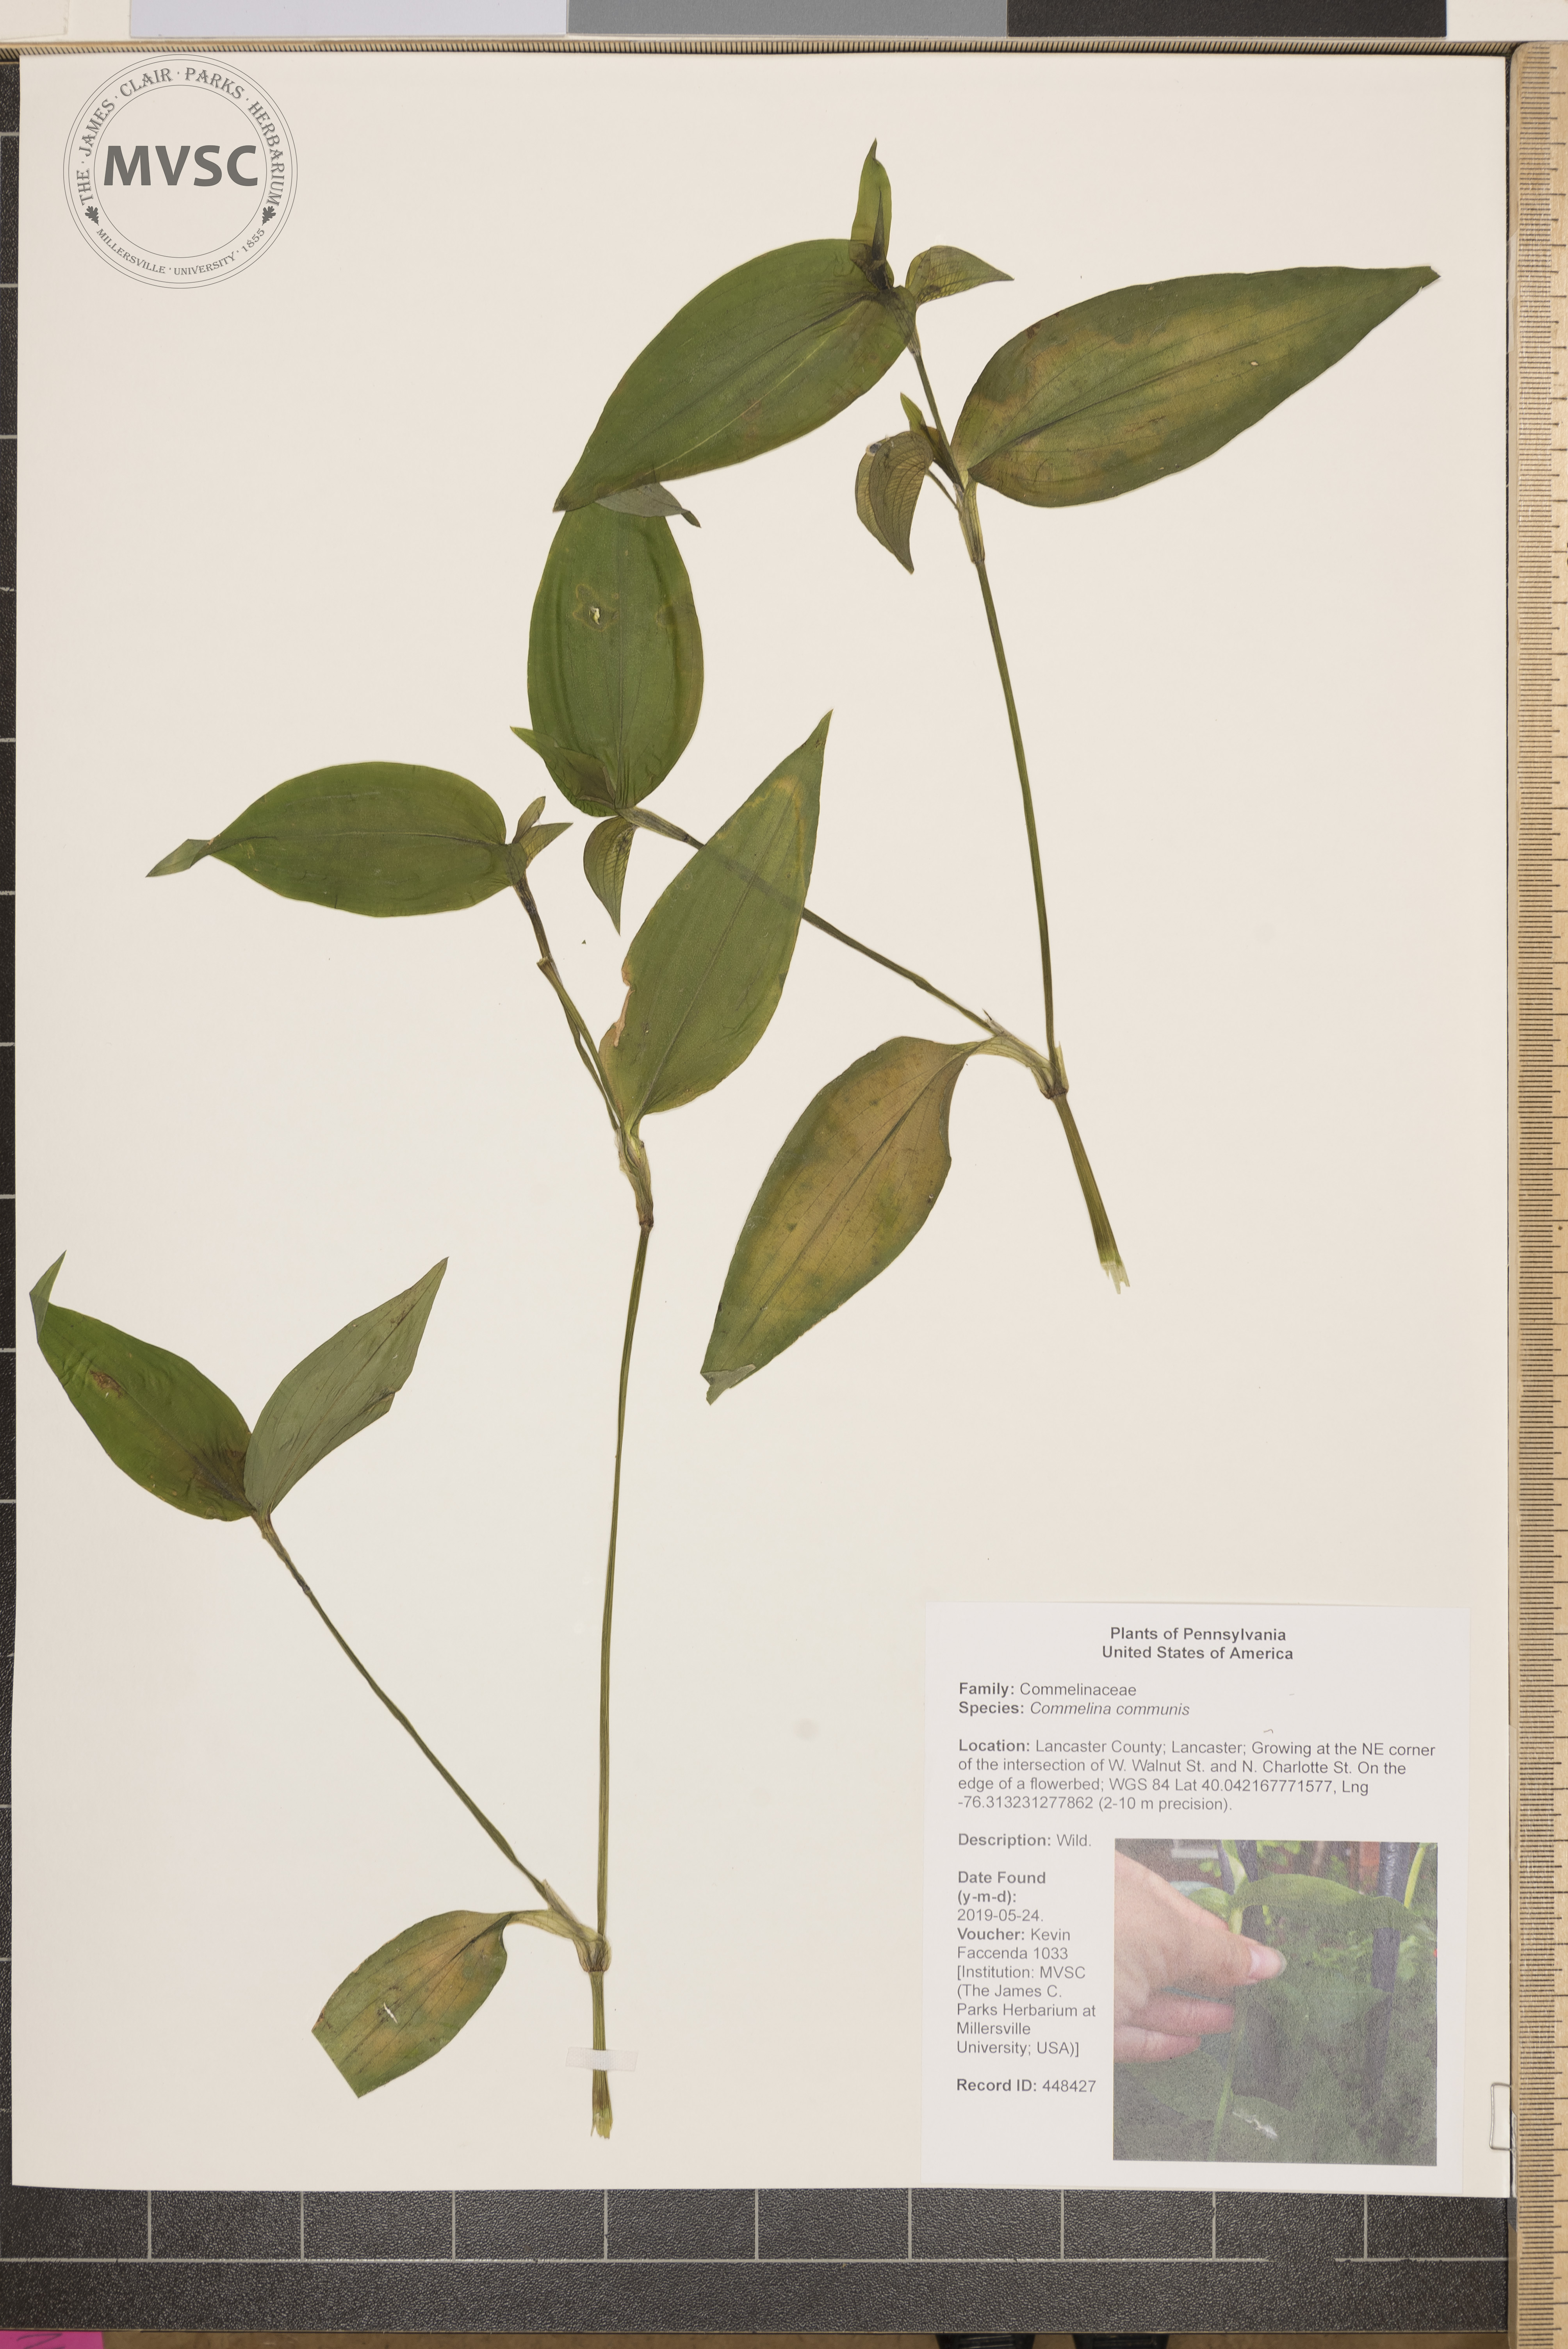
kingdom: Plantae
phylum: Tracheophyta
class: Liliopsida
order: Commelinales
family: Commelinaceae
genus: Commelina
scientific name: Commelina communis
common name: Asiatic dayflower
